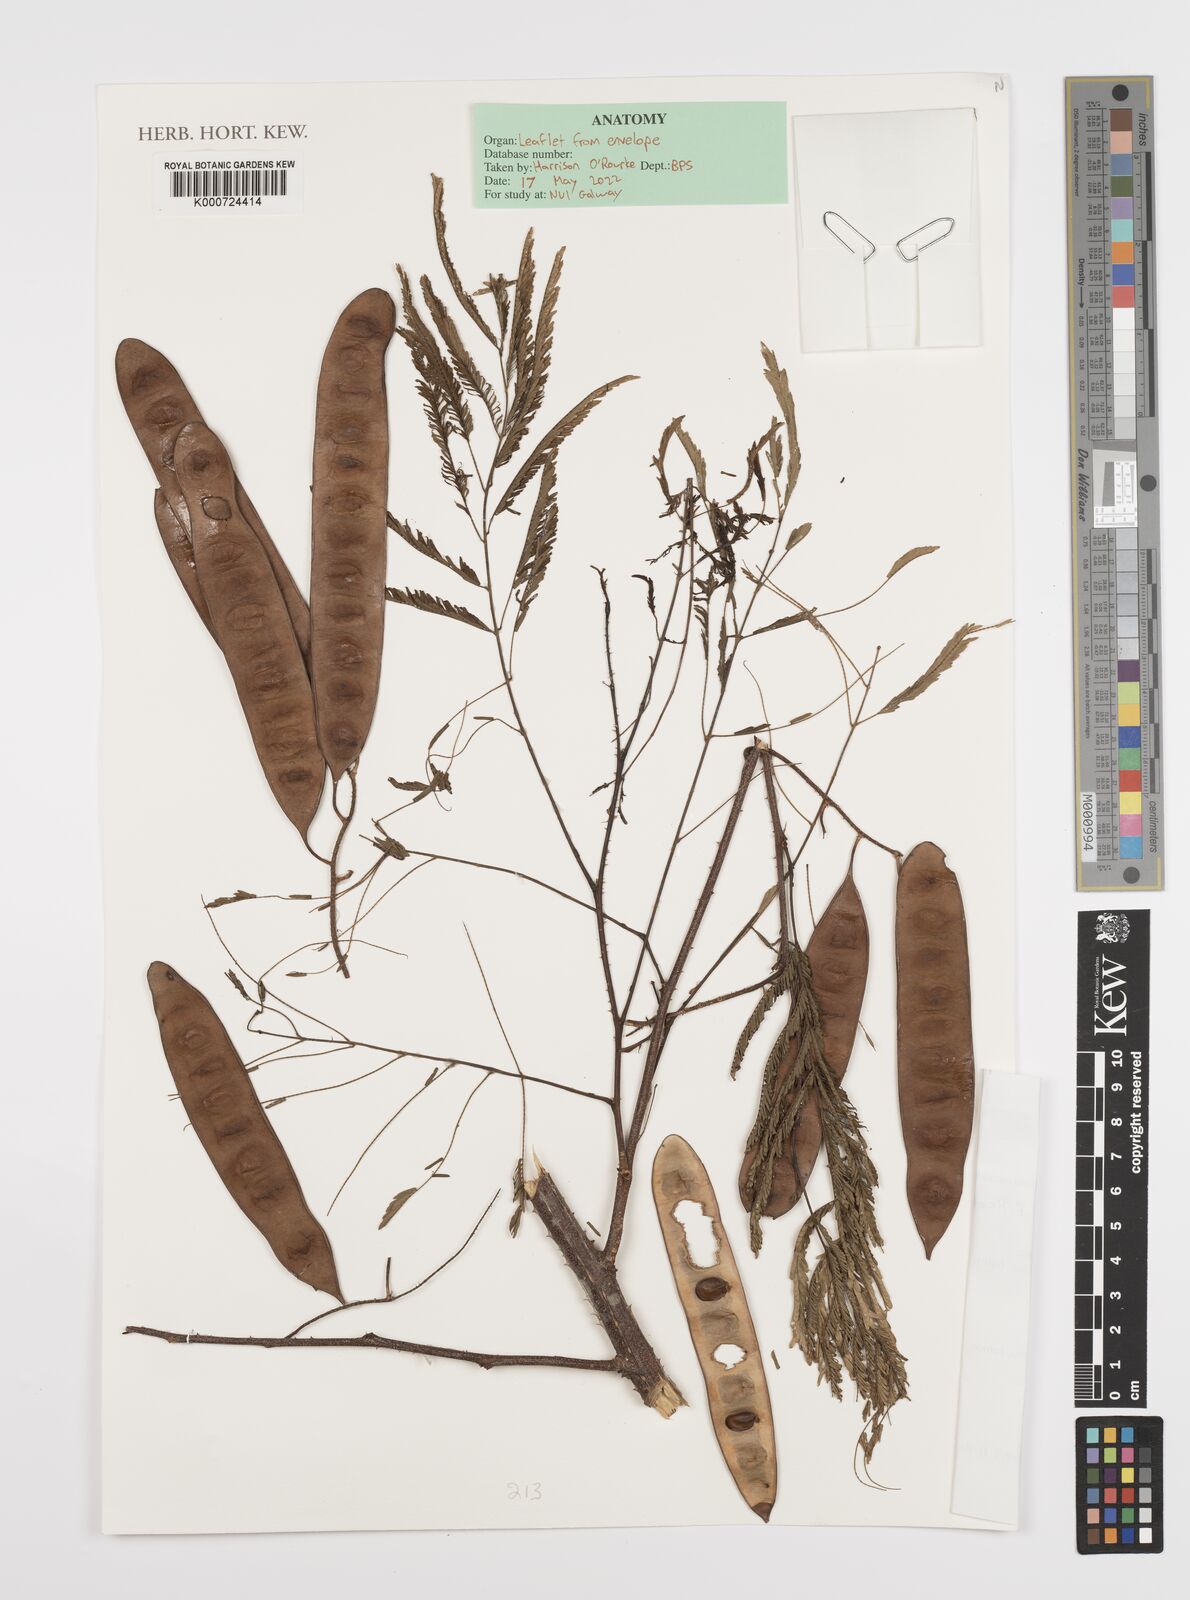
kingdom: Plantae
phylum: Tracheophyta
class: Magnoliopsida
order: Fabales
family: Fabaceae
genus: Piptadenia
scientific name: Piptadenia gonoacantha
